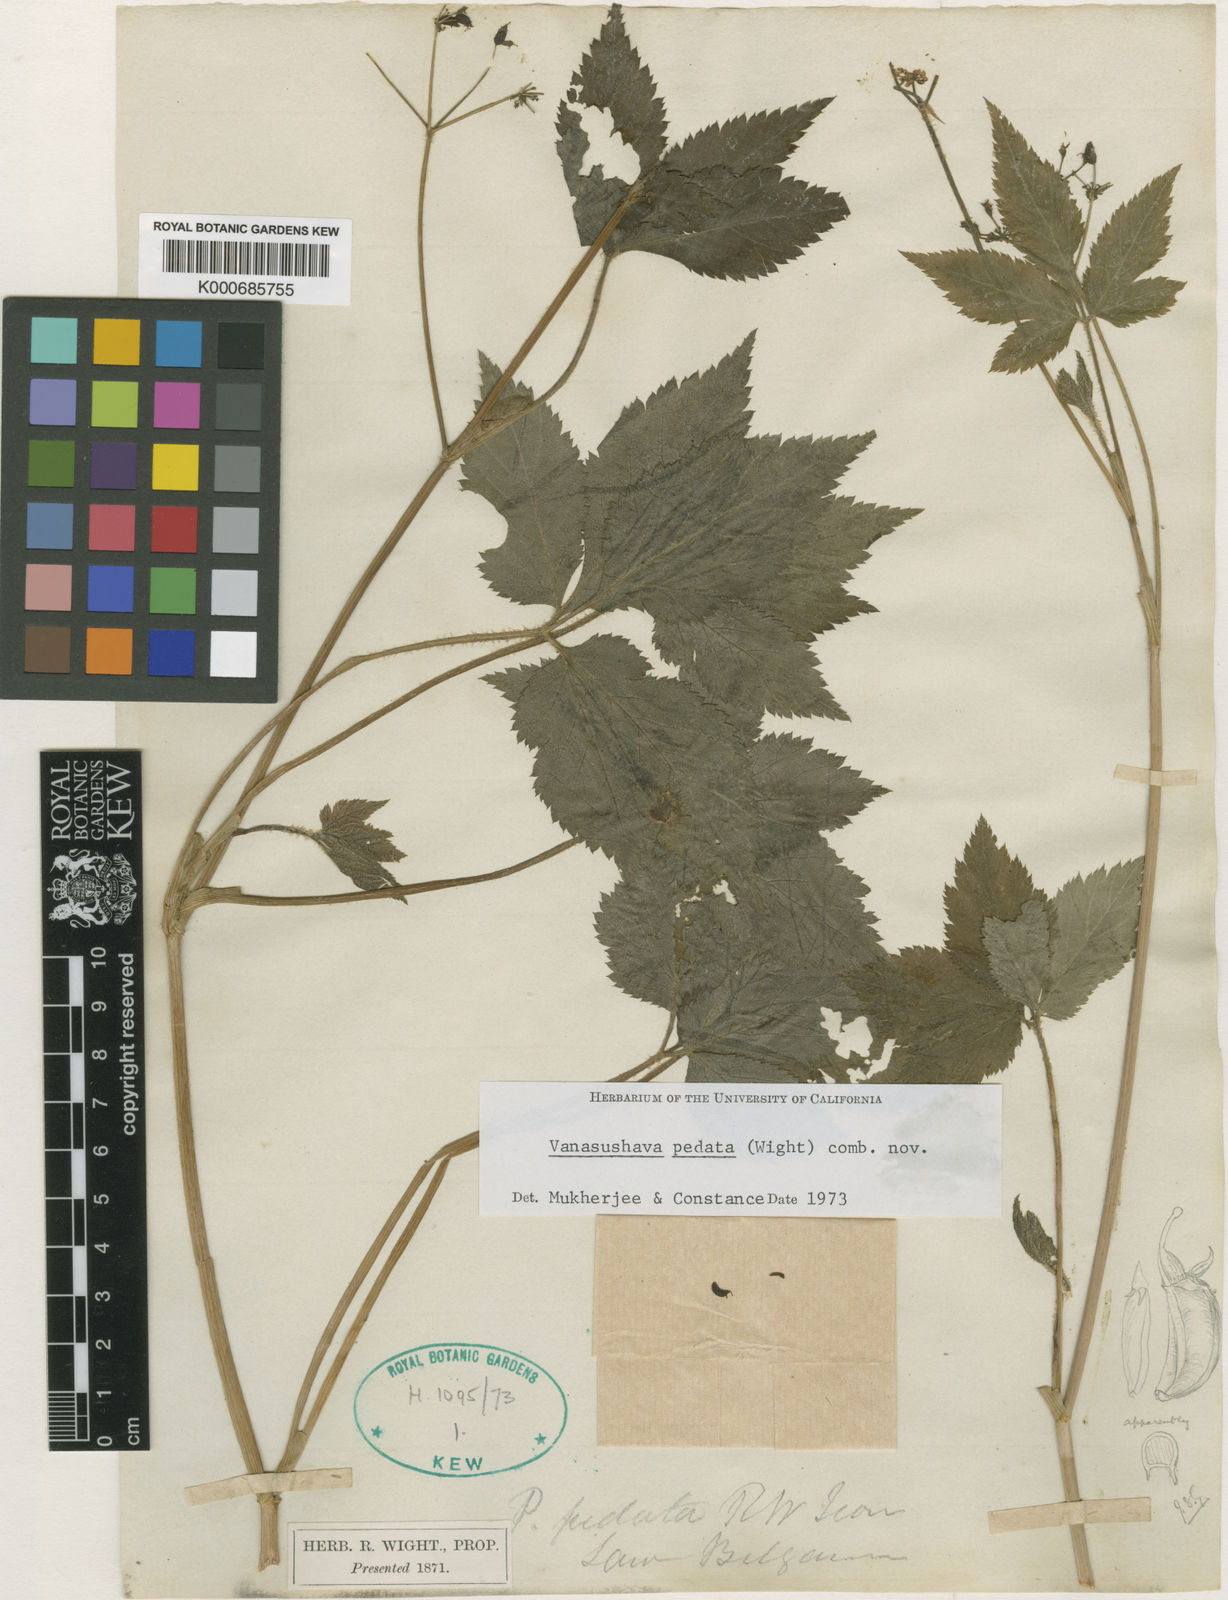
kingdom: Plantae
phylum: Tracheophyta
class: Magnoliopsida
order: Apiales
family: Apiaceae
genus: Vanasushava
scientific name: Vanasushava pedata
